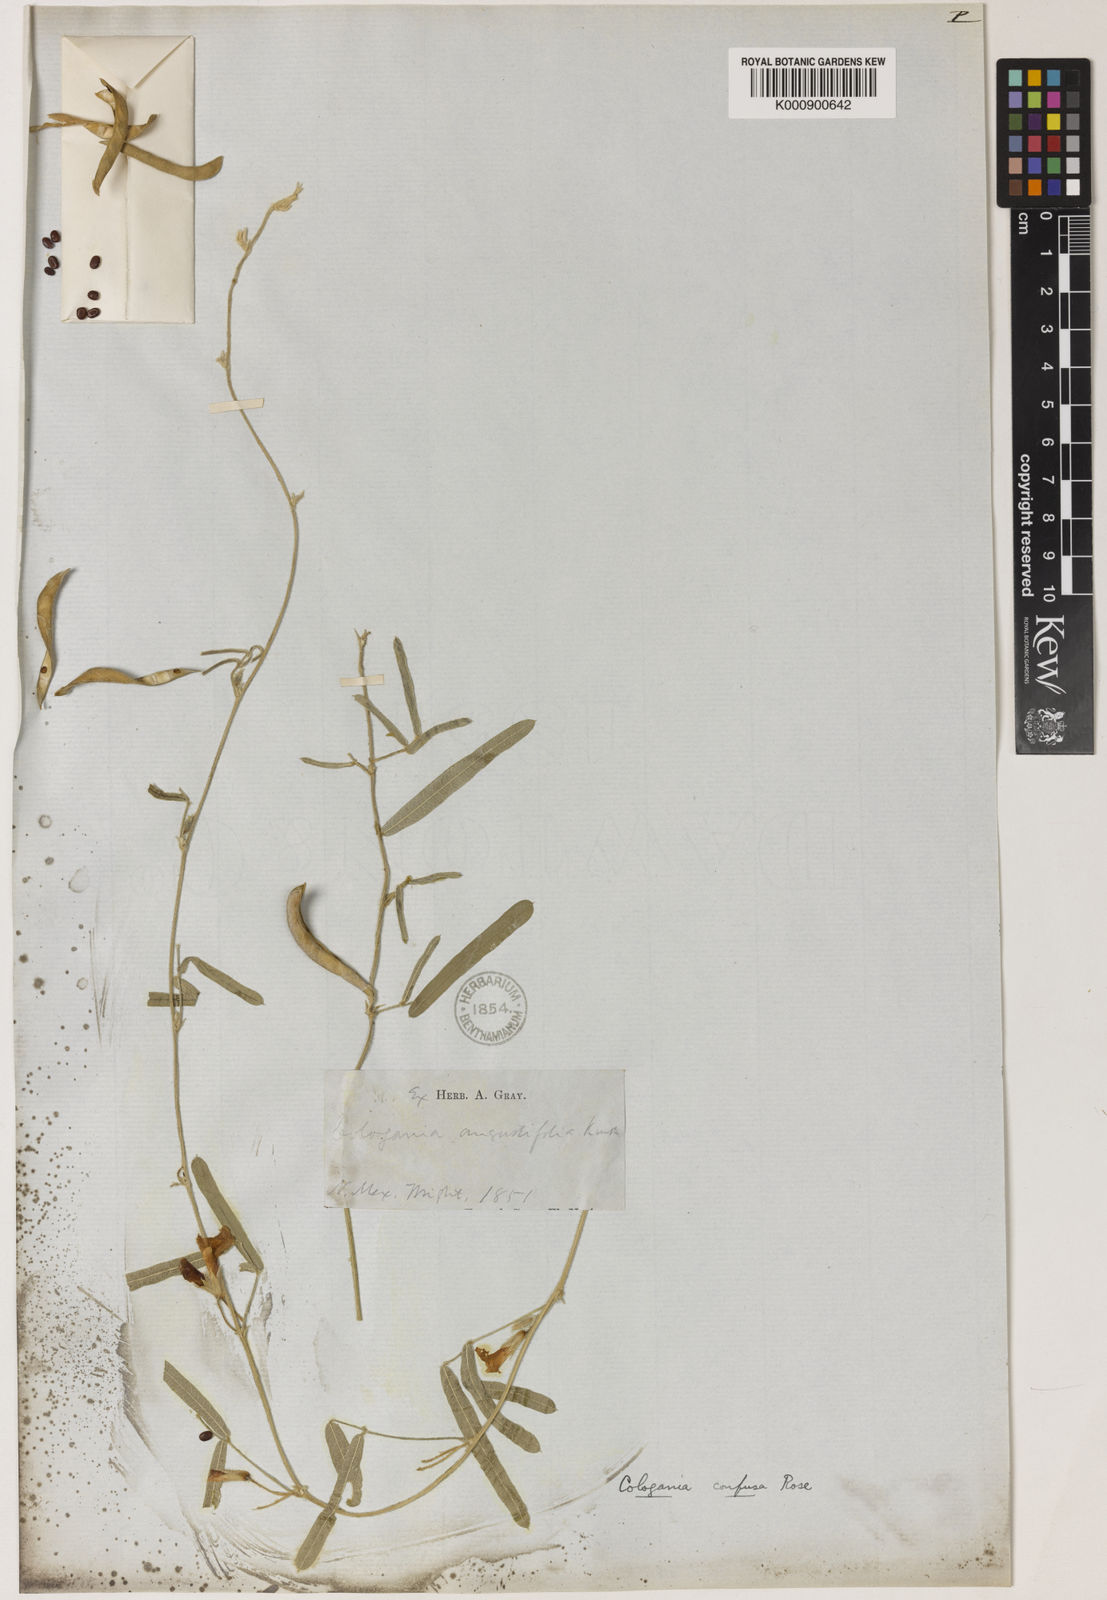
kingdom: Plantae
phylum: Tracheophyta
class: Magnoliopsida
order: Fabales
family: Fabaceae
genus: Cologania
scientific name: Cologania angustifolia
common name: Longleaf cologania
